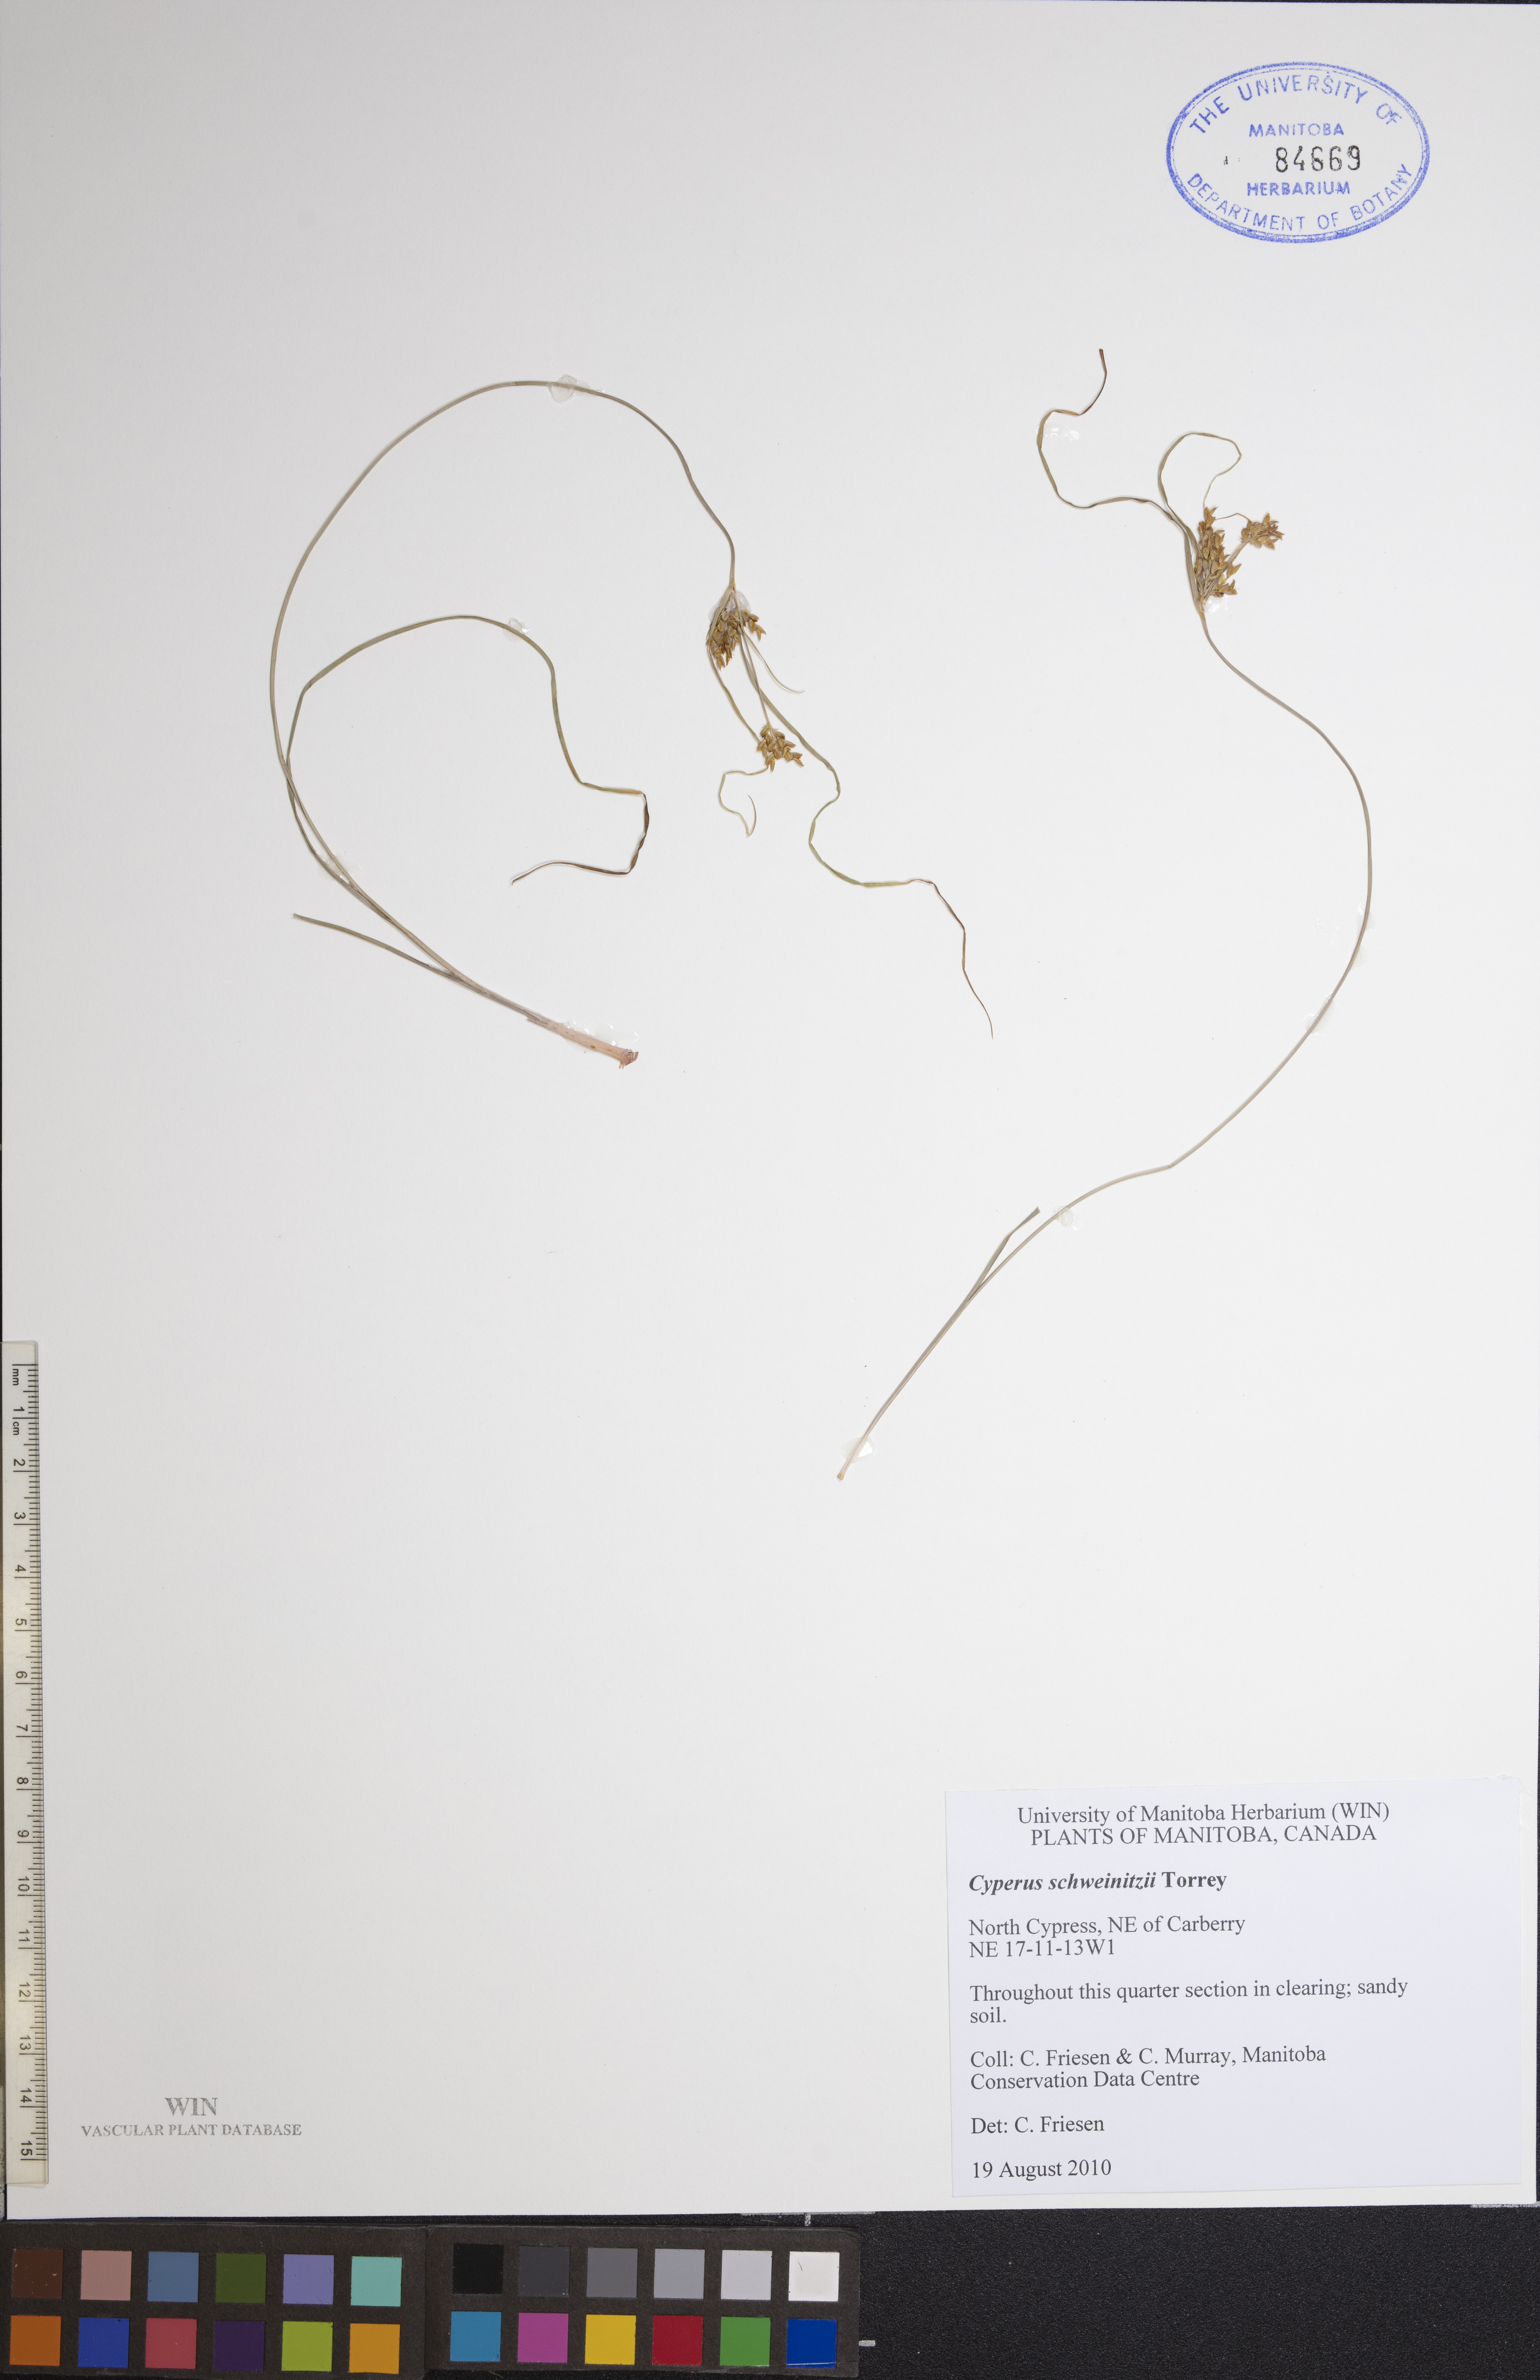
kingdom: Plantae
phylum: Tracheophyta
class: Liliopsida
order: Poales
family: Cyperaceae
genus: Cyperus
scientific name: Cyperus schweinitzii
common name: Schweinitz's cyperus
